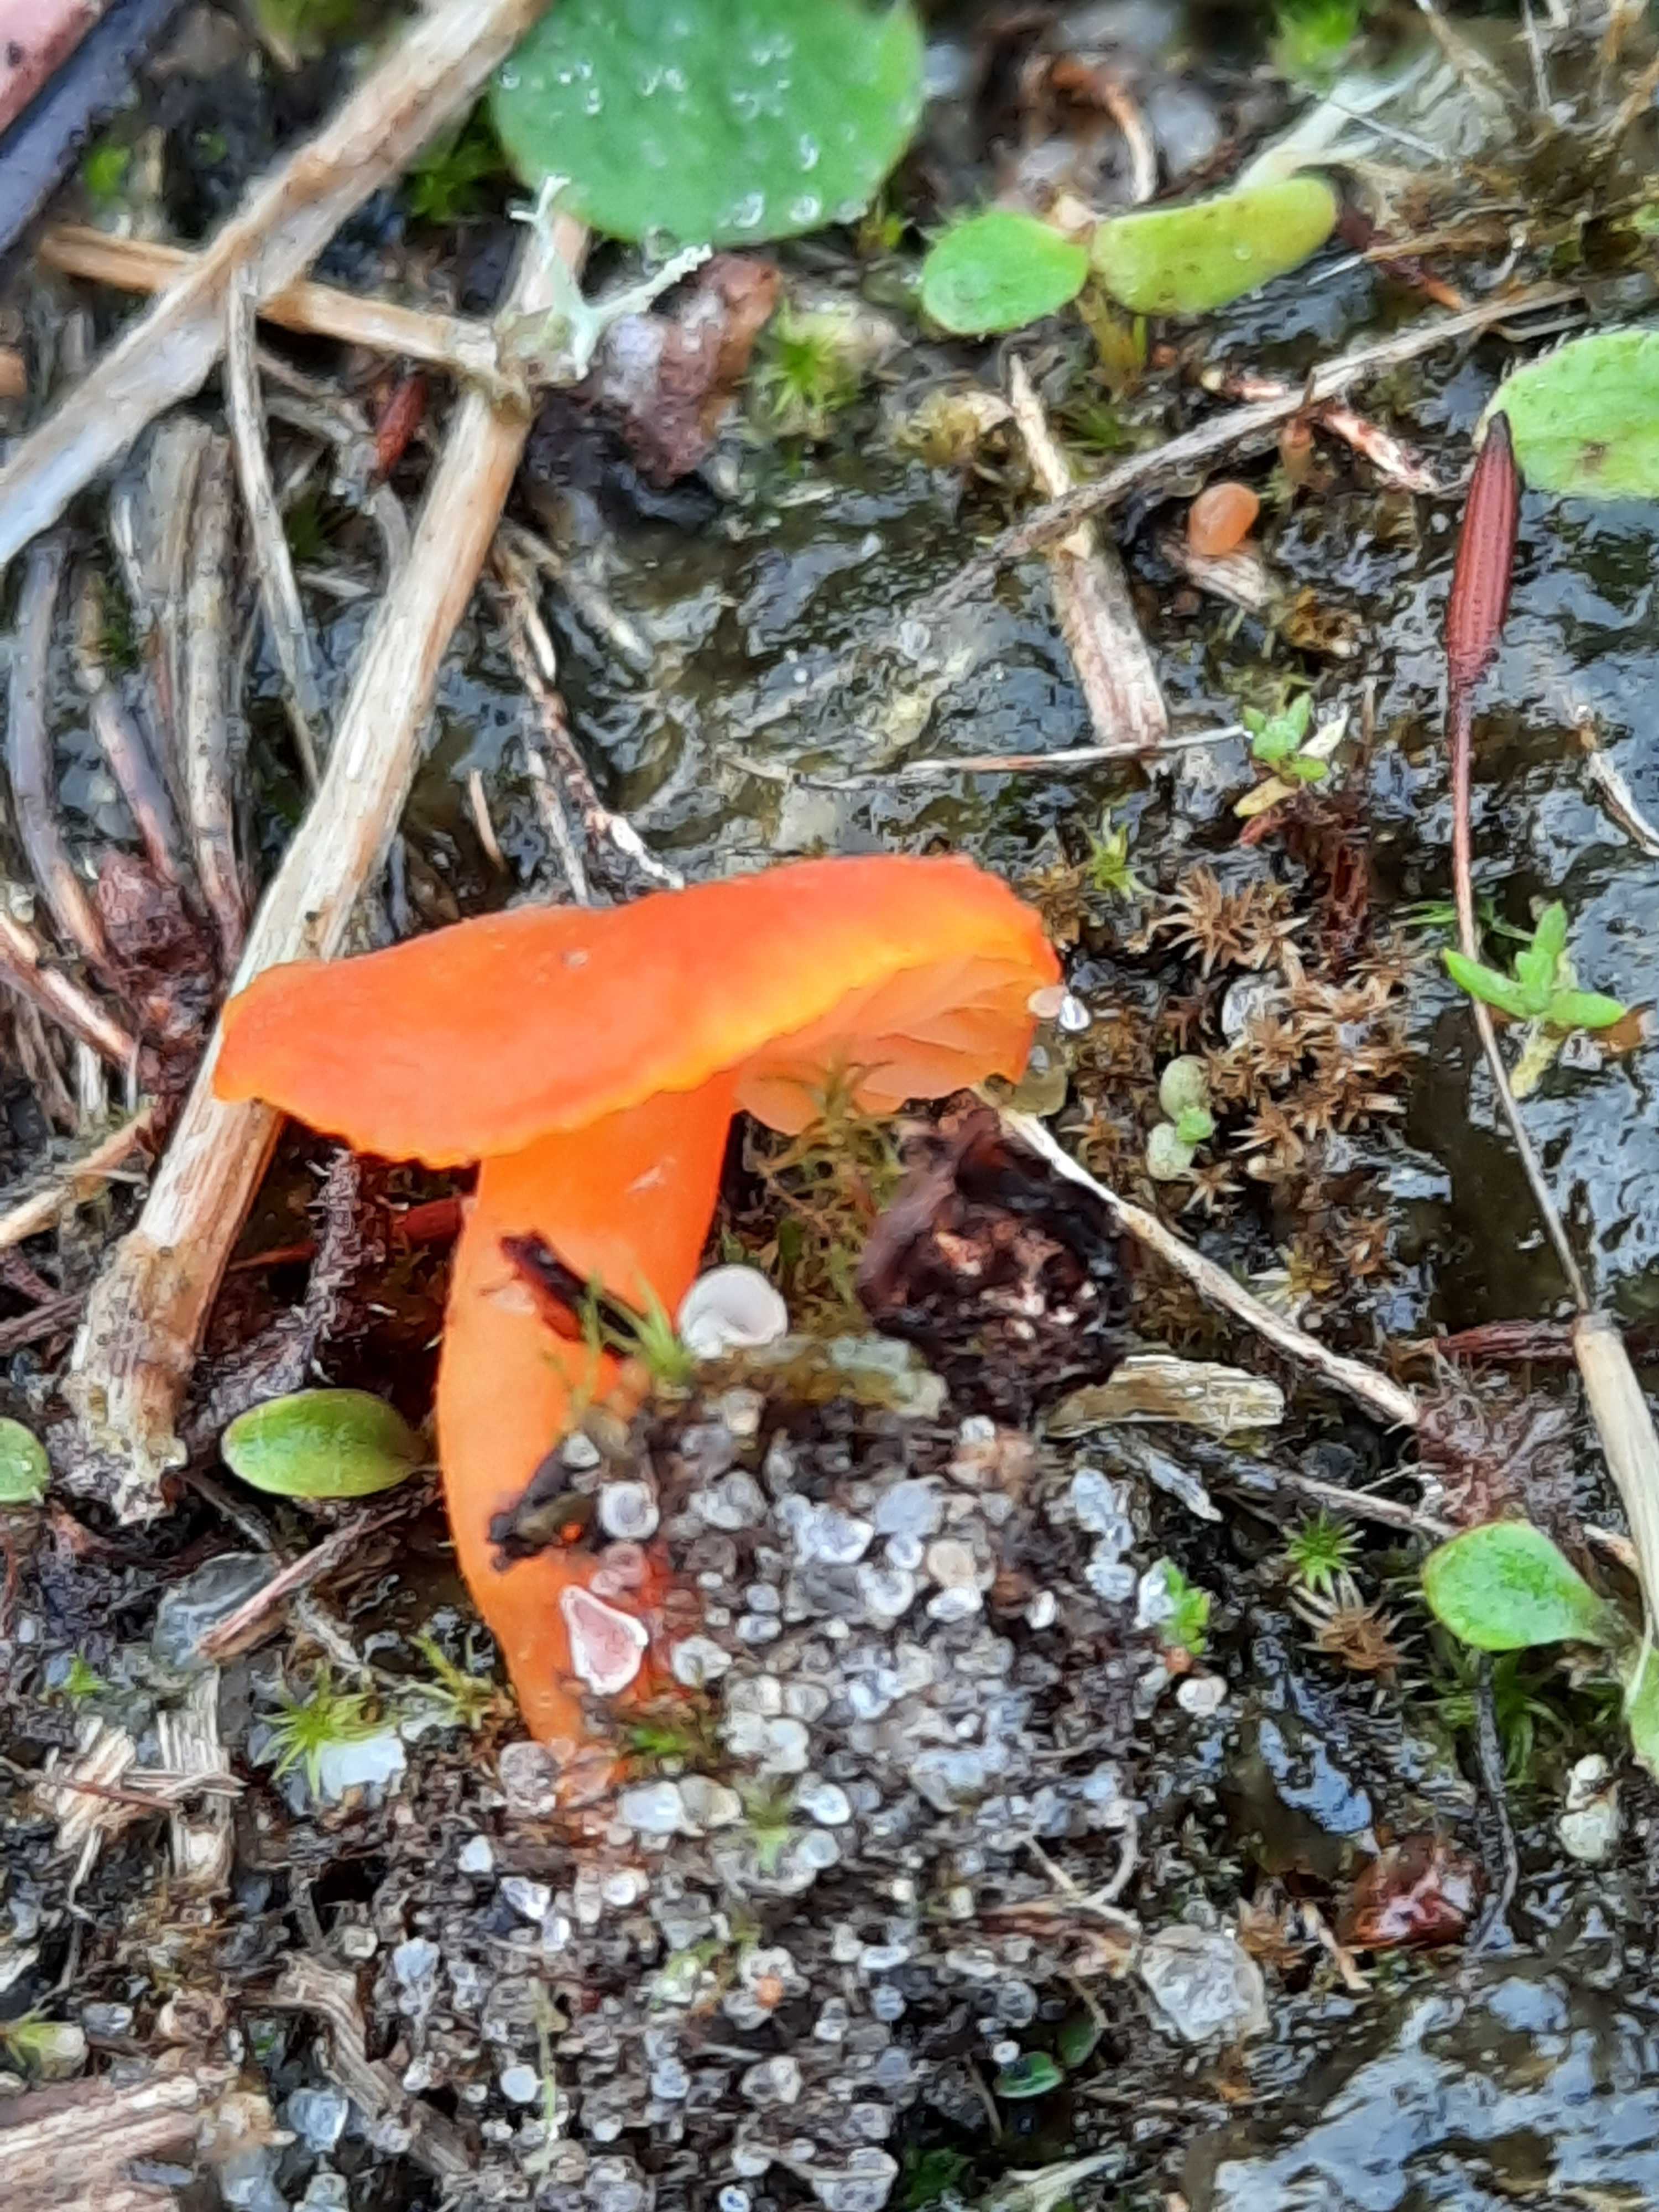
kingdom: Fungi
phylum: Basidiomycota
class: Agaricomycetes
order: Agaricales
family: Hygrophoraceae
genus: Hygrocybe
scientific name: Hygrocybe miniata
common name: mønje-vokshat
